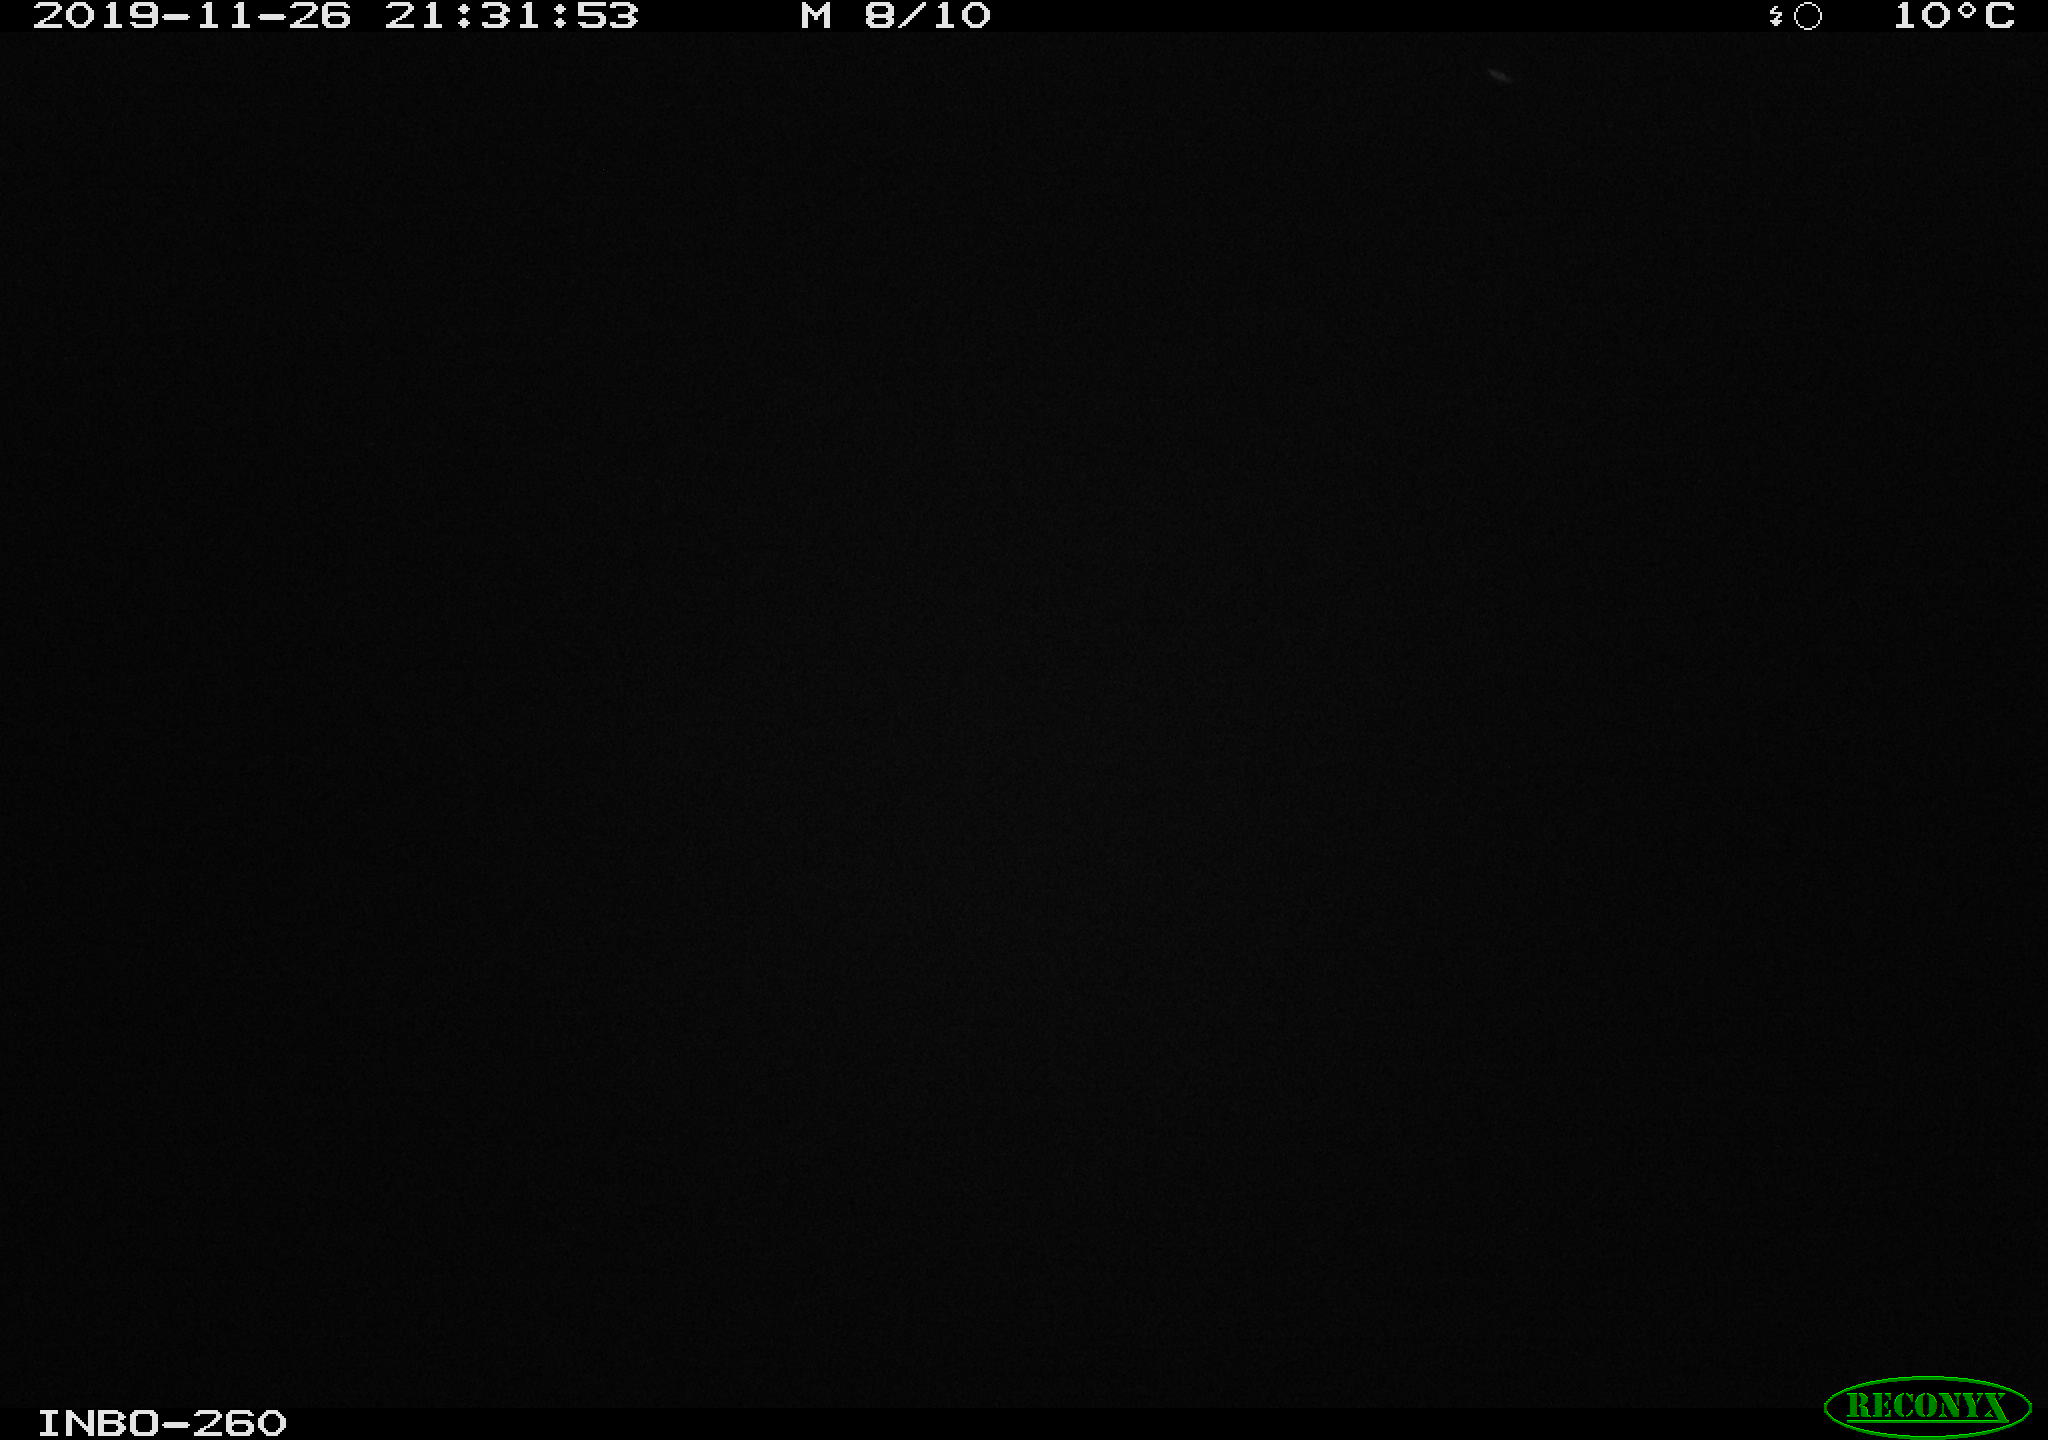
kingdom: Animalia
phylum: Chordata
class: Aves
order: Anseriformes
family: Anatidae
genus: Anas
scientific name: Anas platyrhynchos
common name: Mallard
